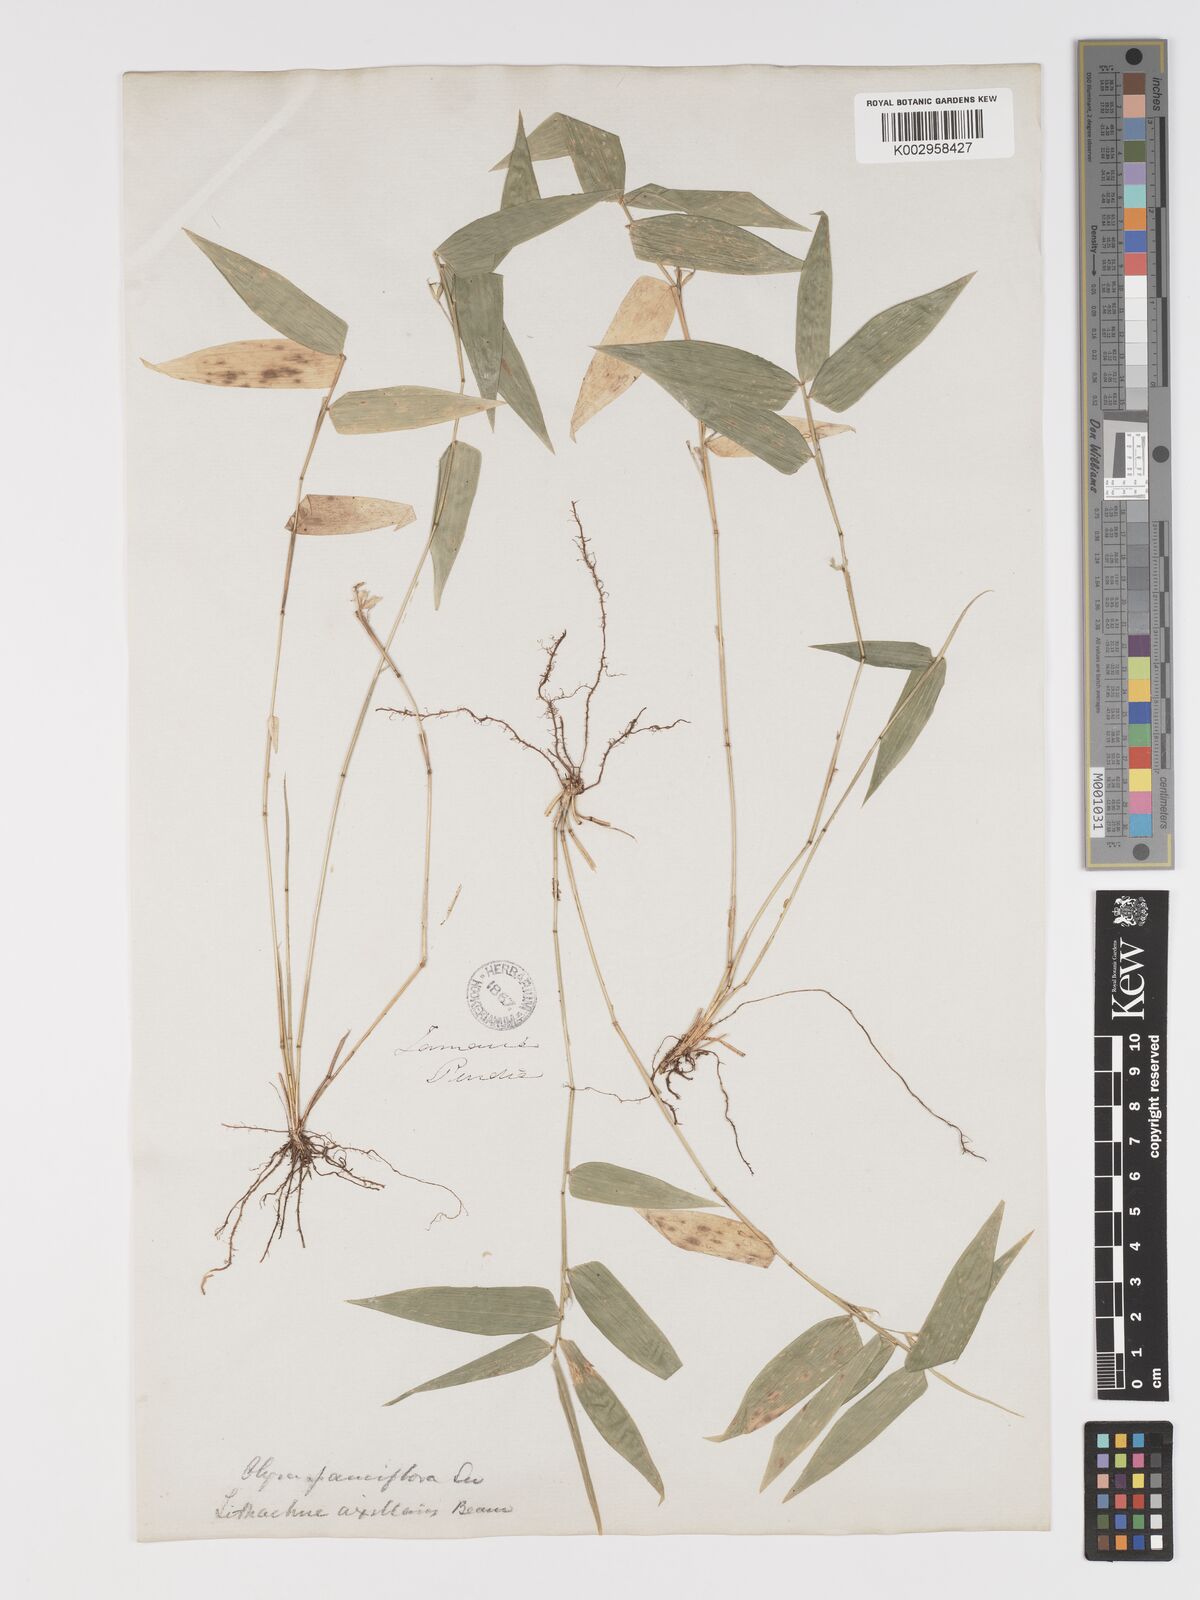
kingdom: Plantae
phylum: Tracheophyta
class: Liliopsida
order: Poales
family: Poaceae
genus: Lithachne
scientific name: Lithachne pauciflora
